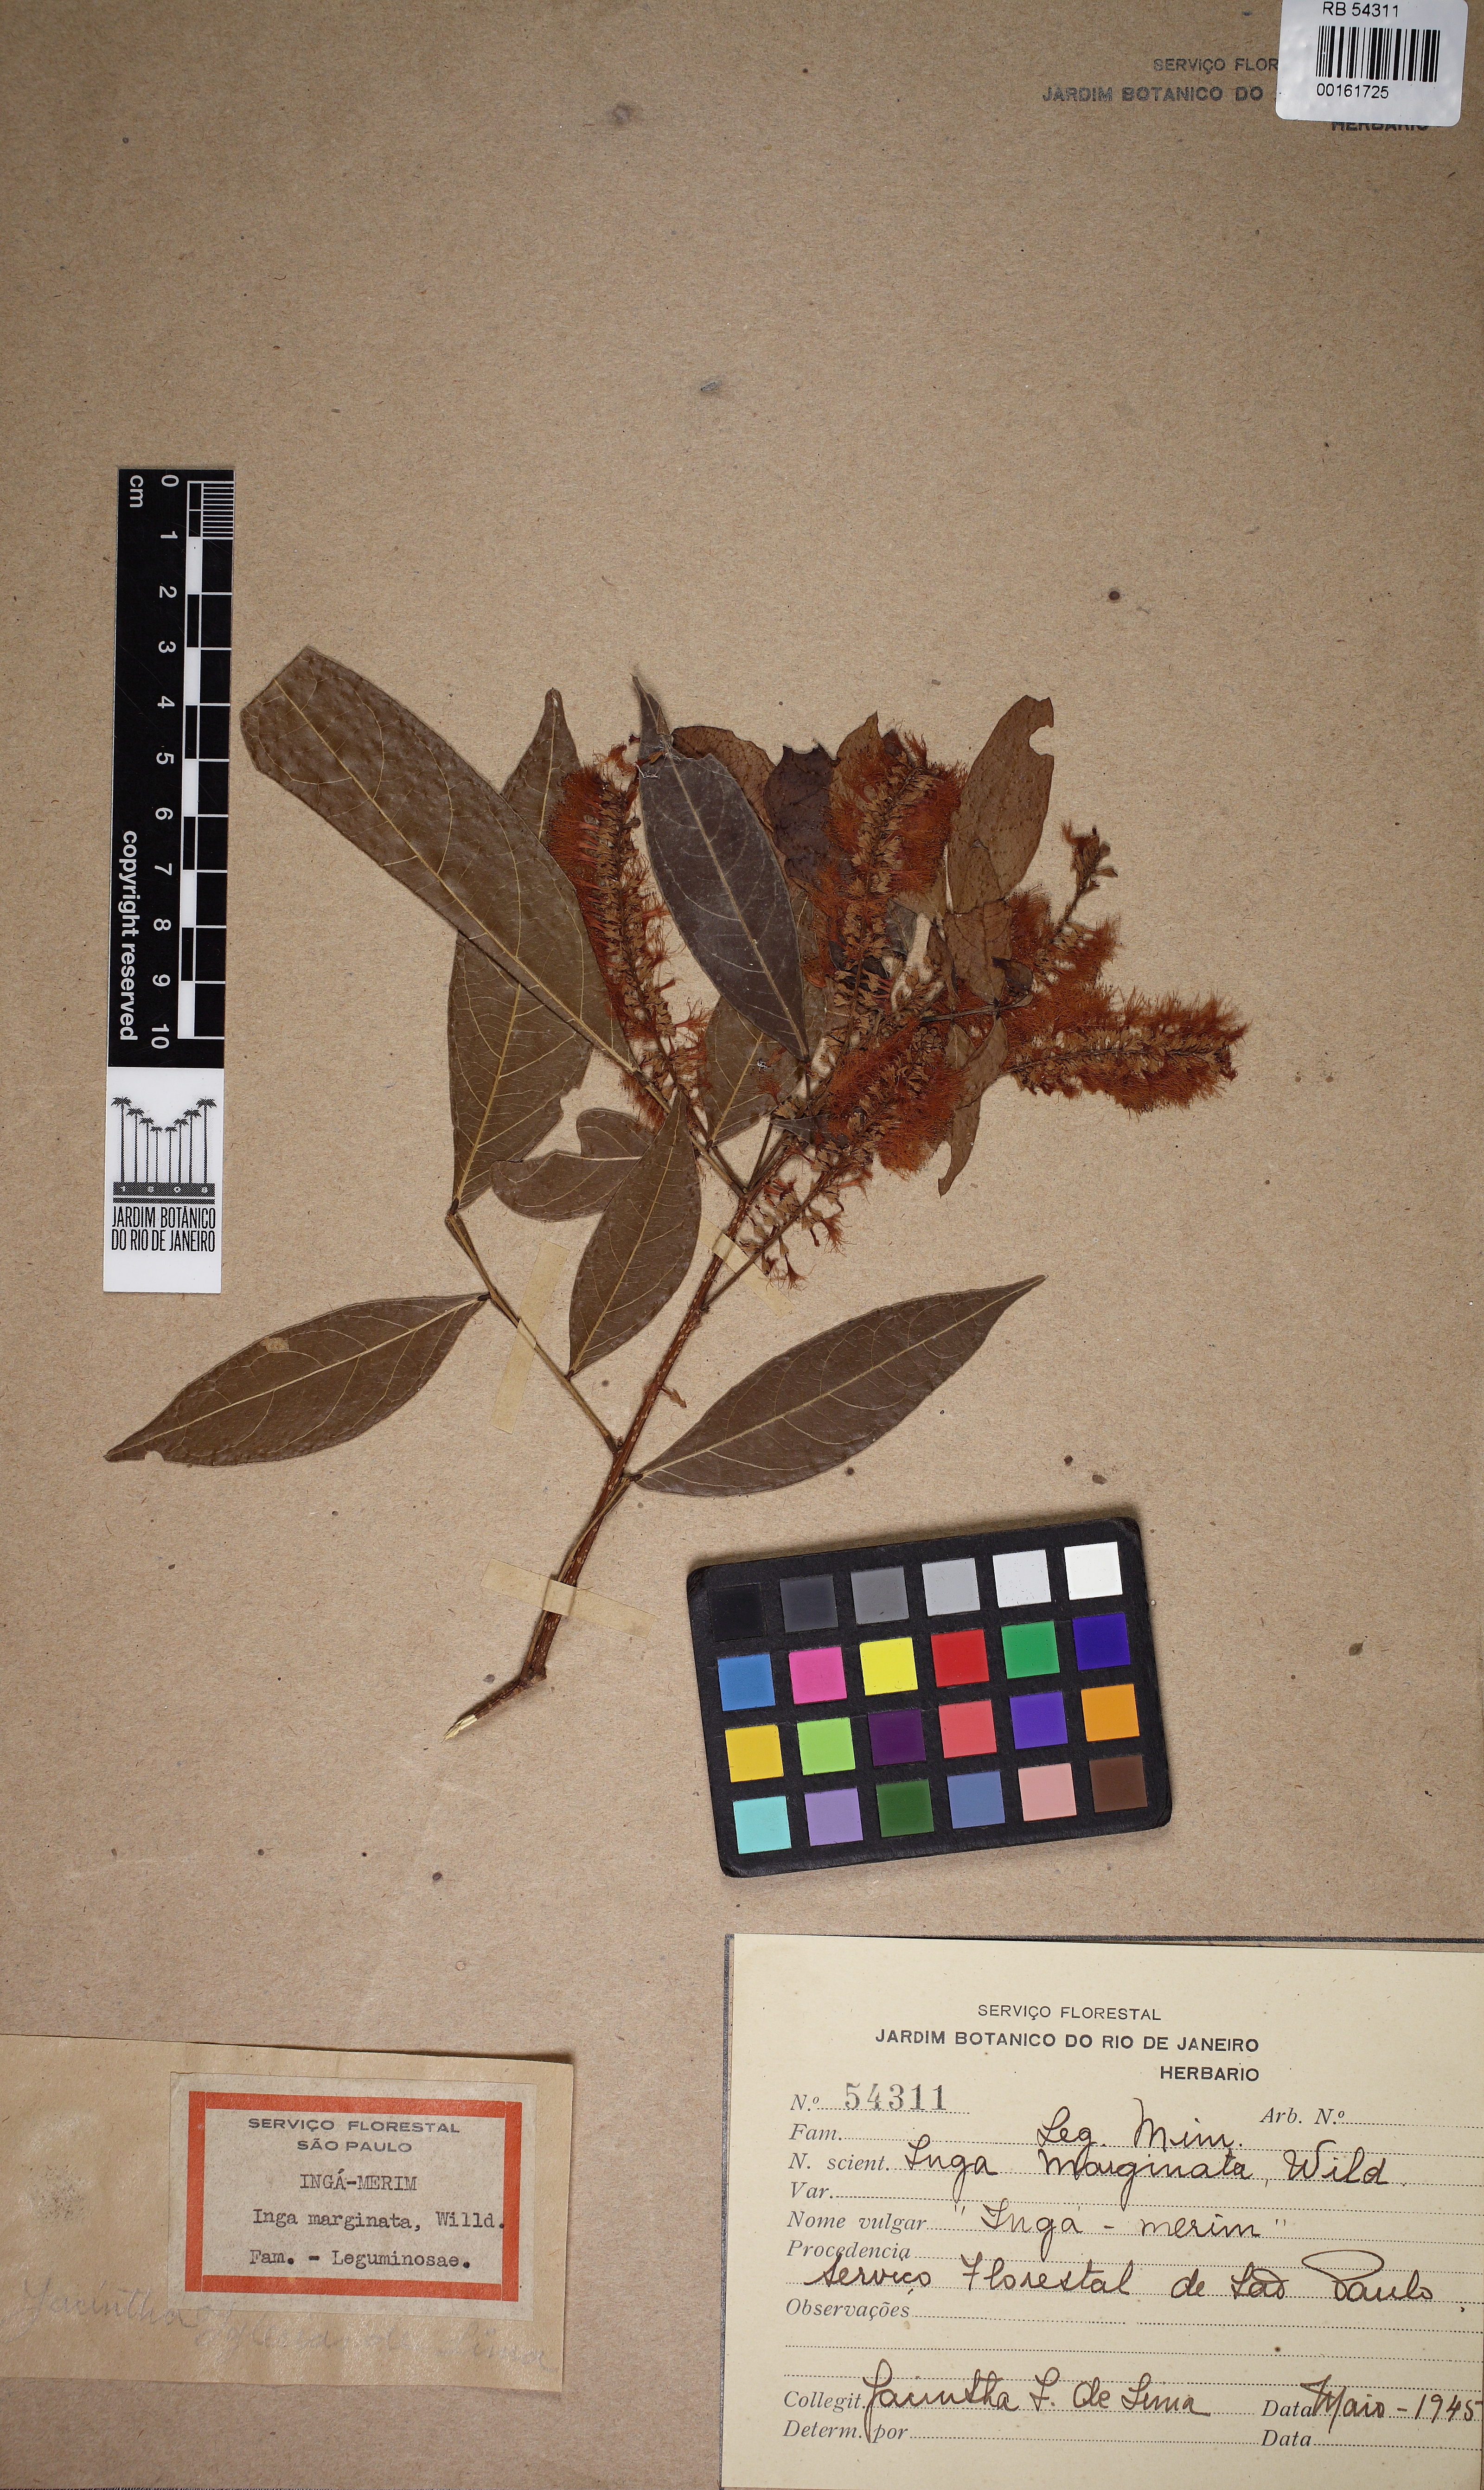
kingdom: Plantae
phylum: Tracheophyta
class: Magnoliopsida
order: Fabales
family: Fabaceae
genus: Inga
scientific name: Inga marginata
